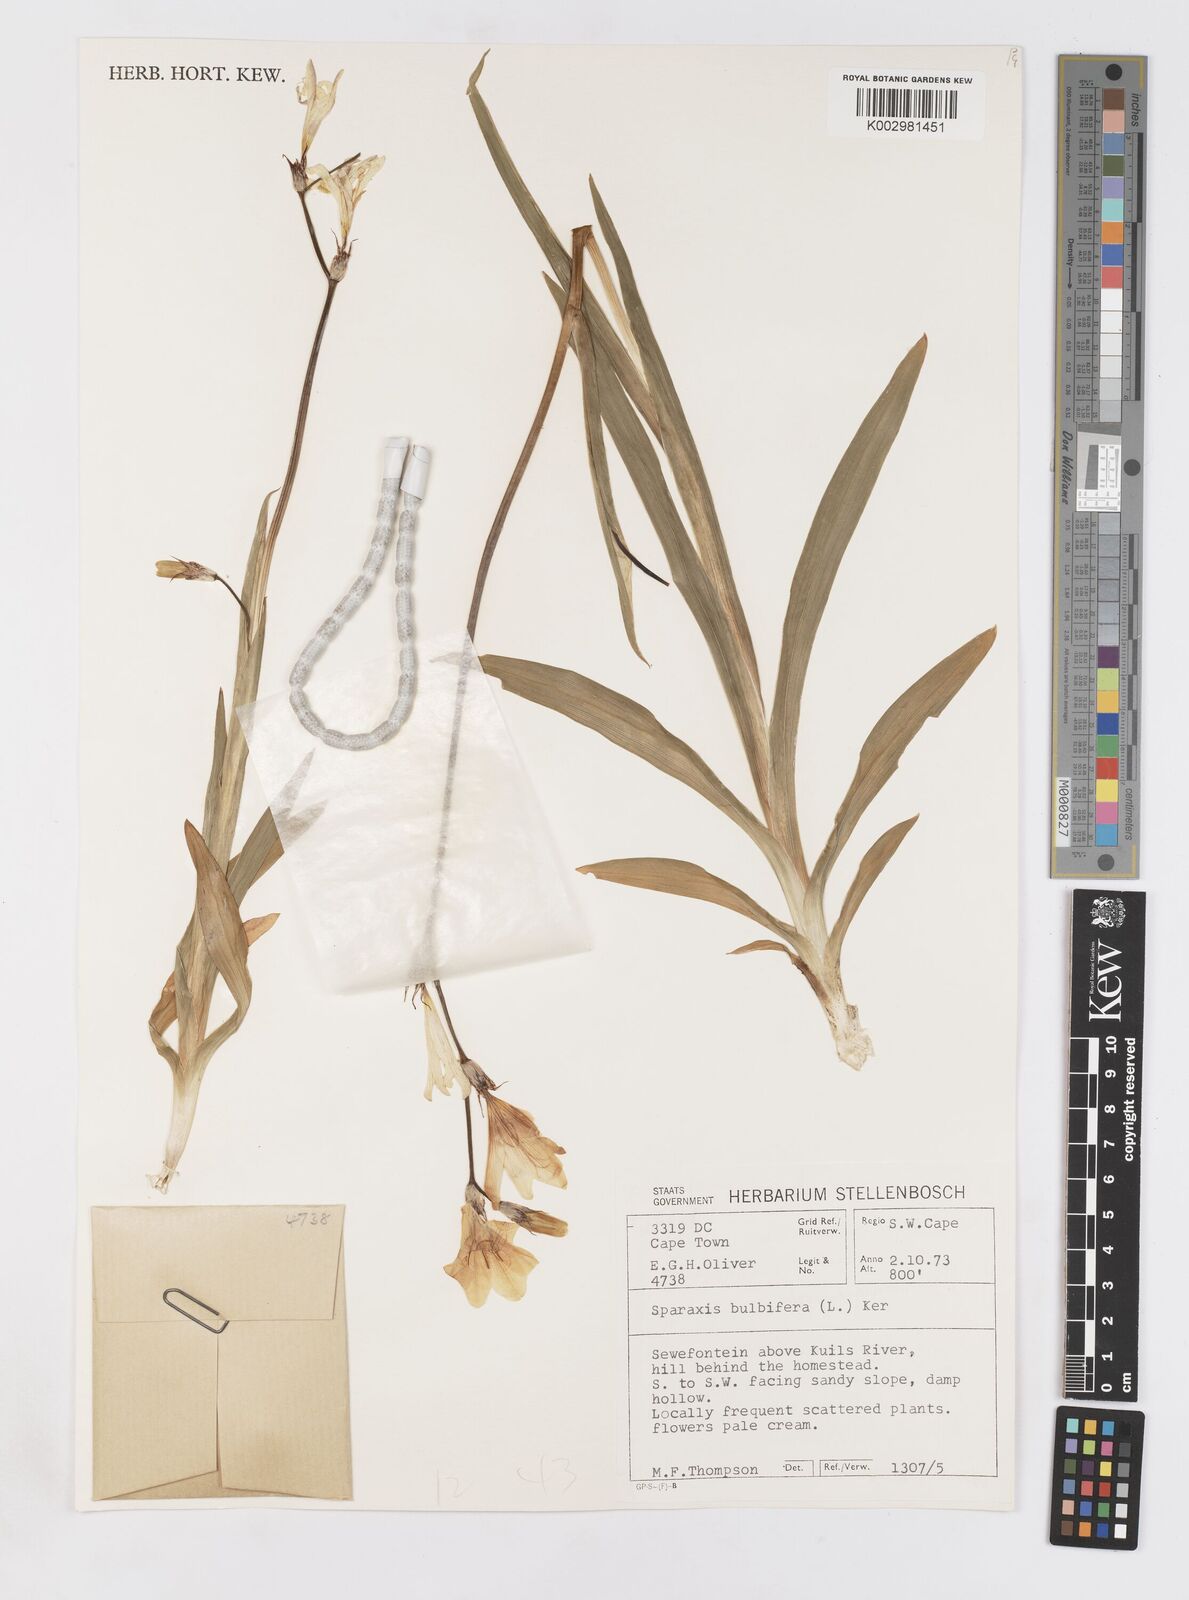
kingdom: Plantae
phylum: Tracheophyta
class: Liliopsida
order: Asparagales
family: Iridaceae
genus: Sparaxis
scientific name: Sparaxis bulbifera
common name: Harlequin-flower
